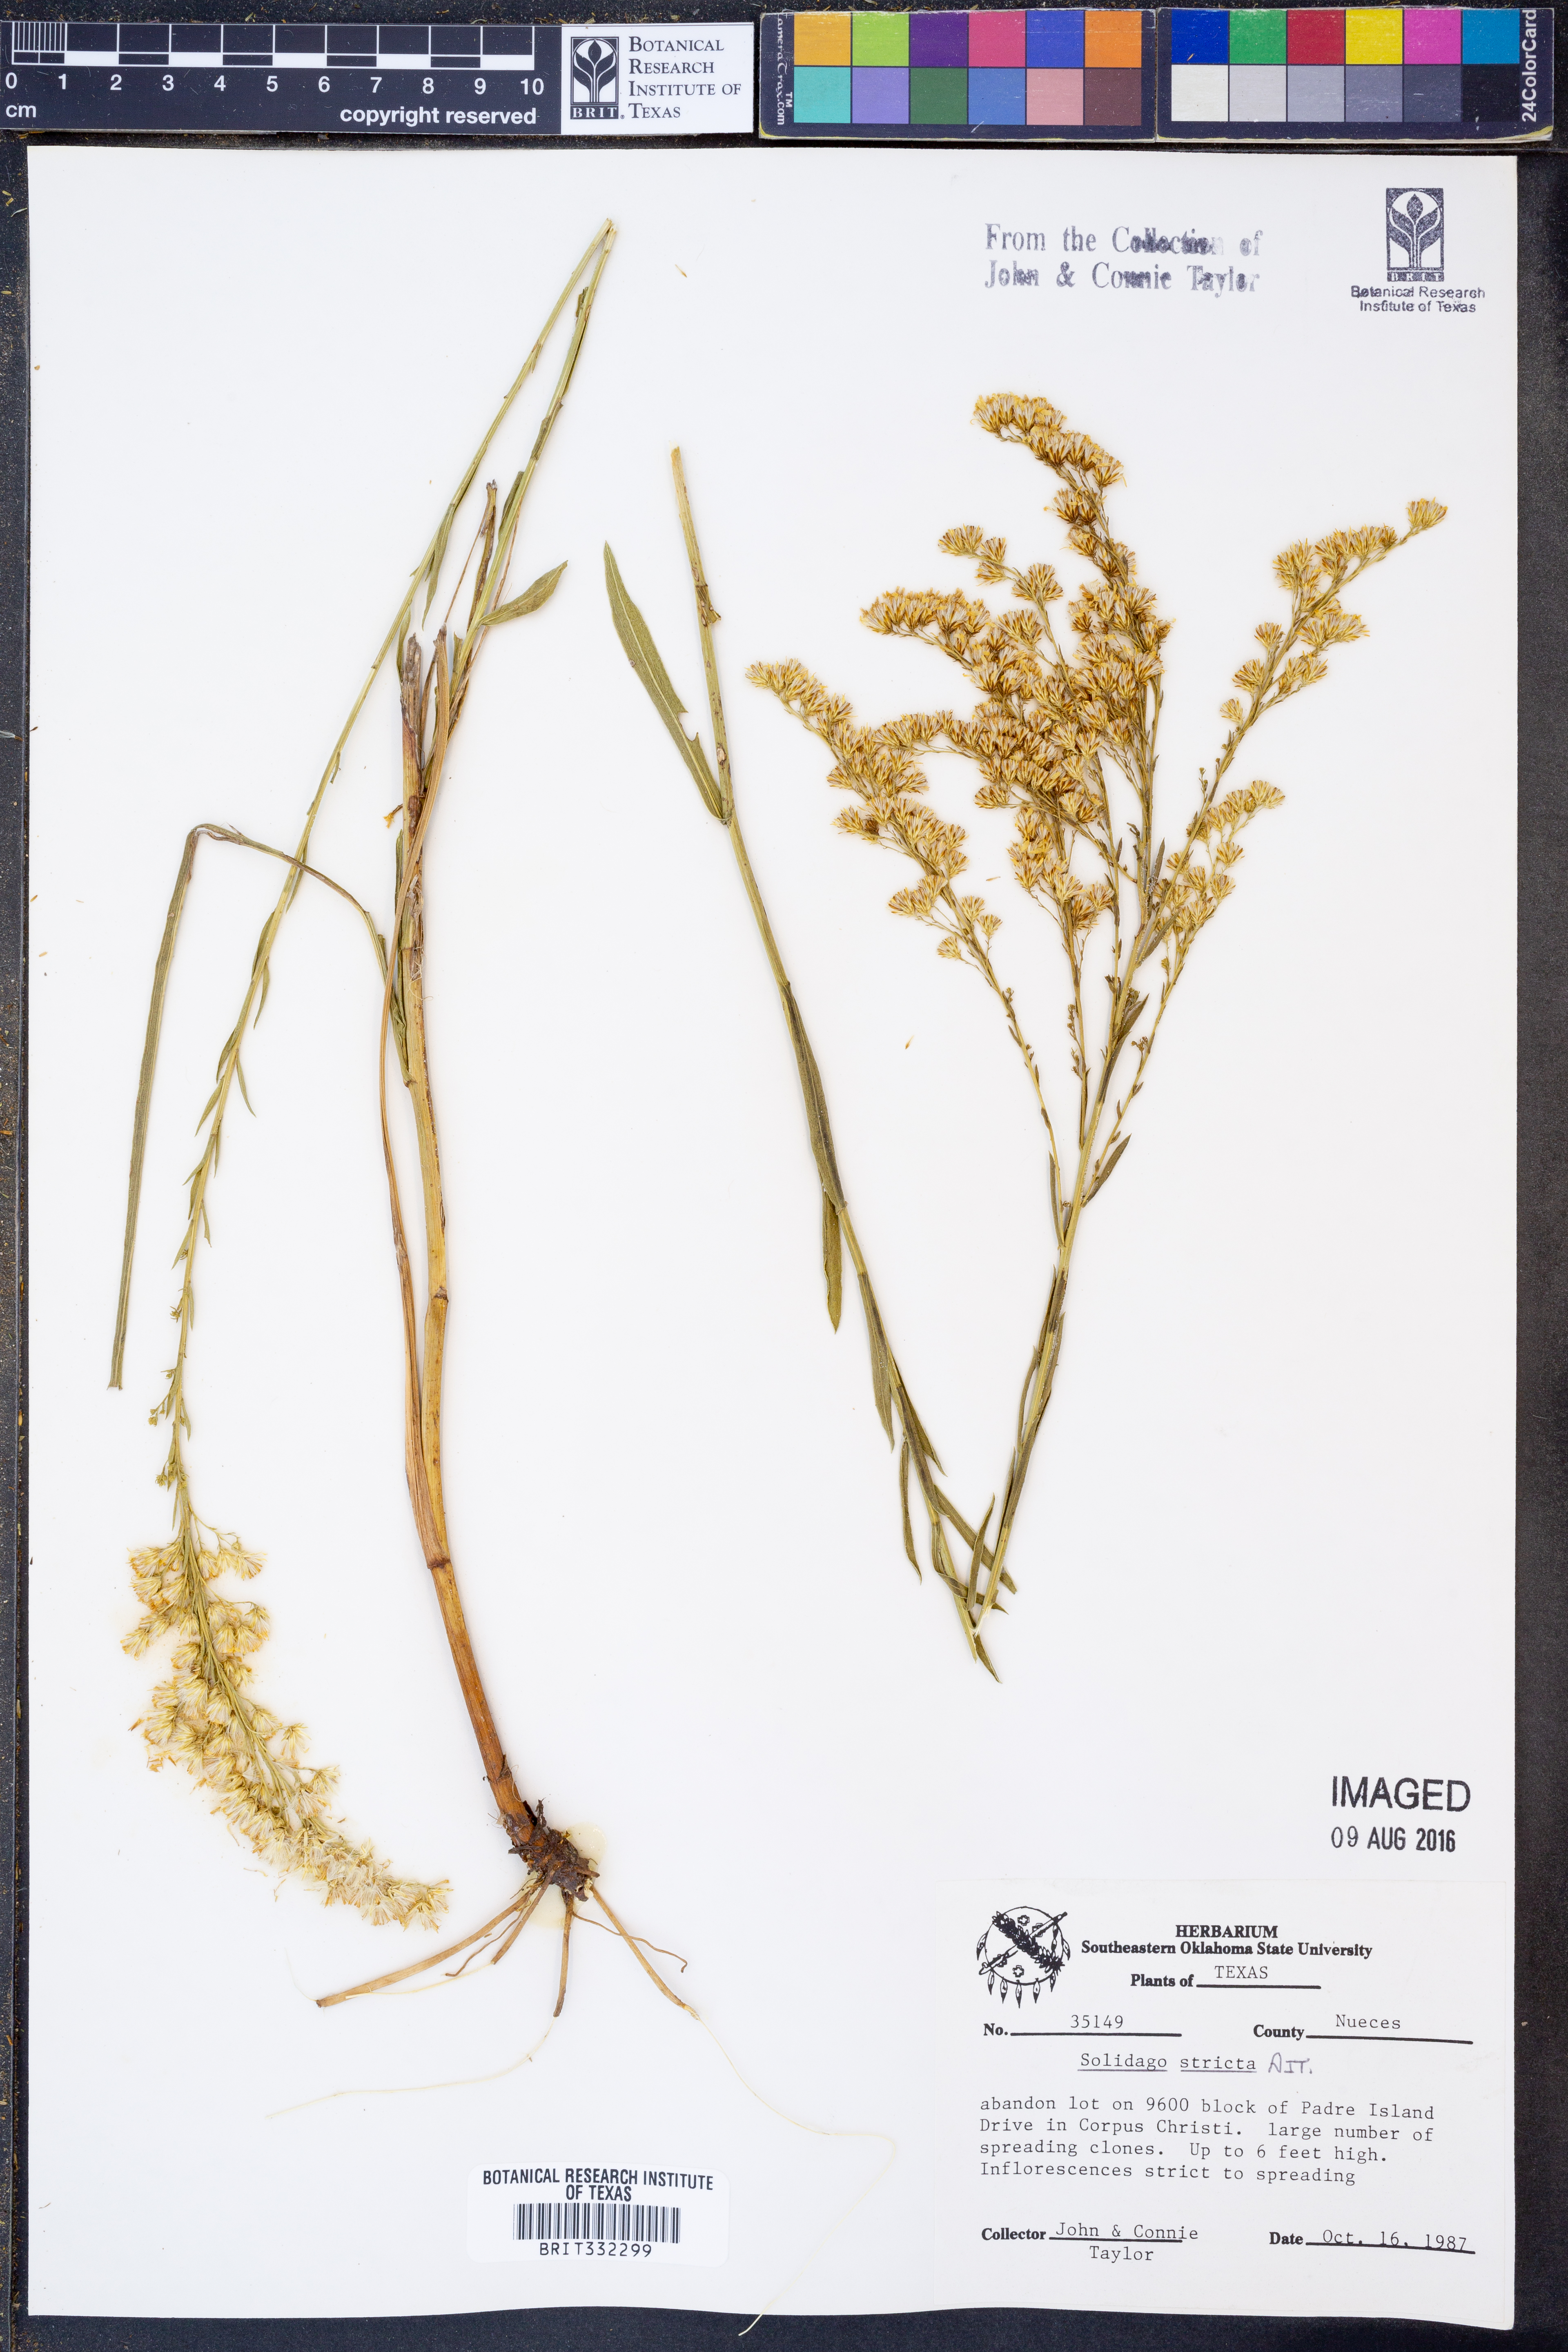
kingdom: Plantae
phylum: Tracheophyta
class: Magnoliopsida
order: Asterales
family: Asteraceae
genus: Solidago
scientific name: Solidago stricta
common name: Pine barren bog goldenrod
